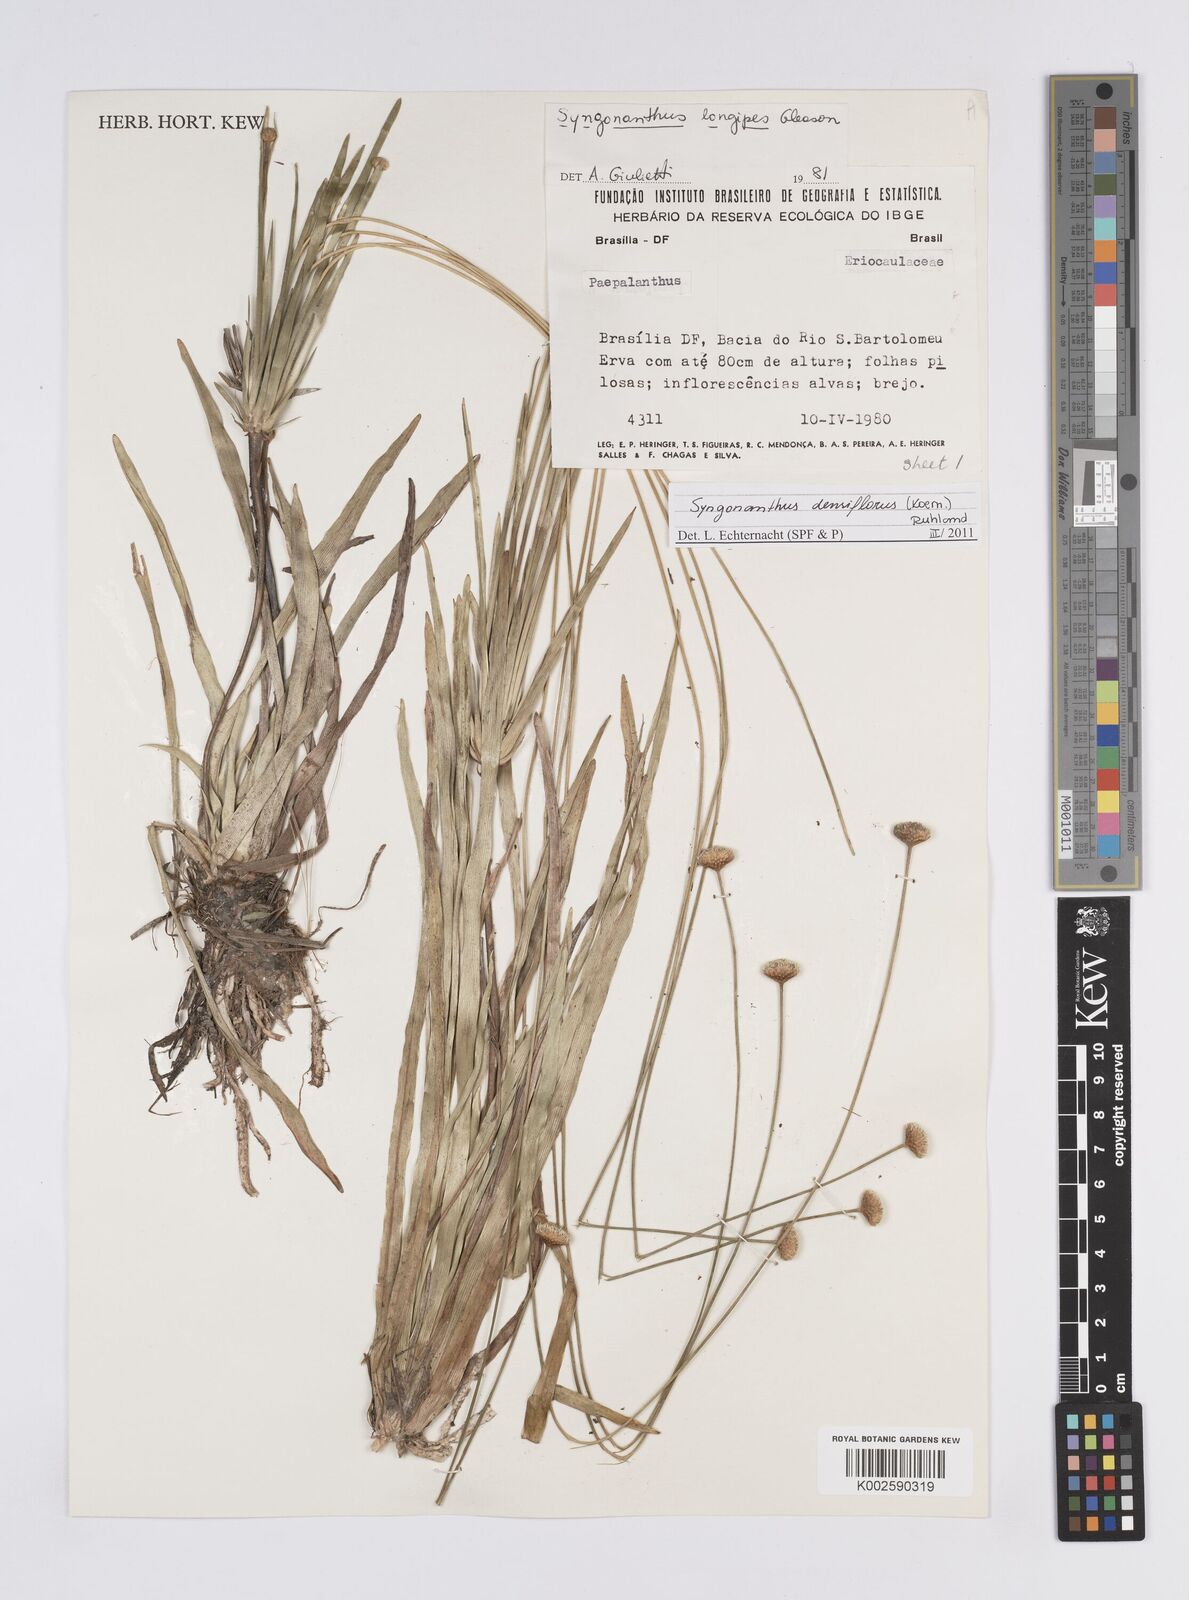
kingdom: Plantae
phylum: Tracheophyta
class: Liliopsida
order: Poales
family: Eriocaulaceae
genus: Syngonanthus
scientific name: Syngonanthus densiflorus
